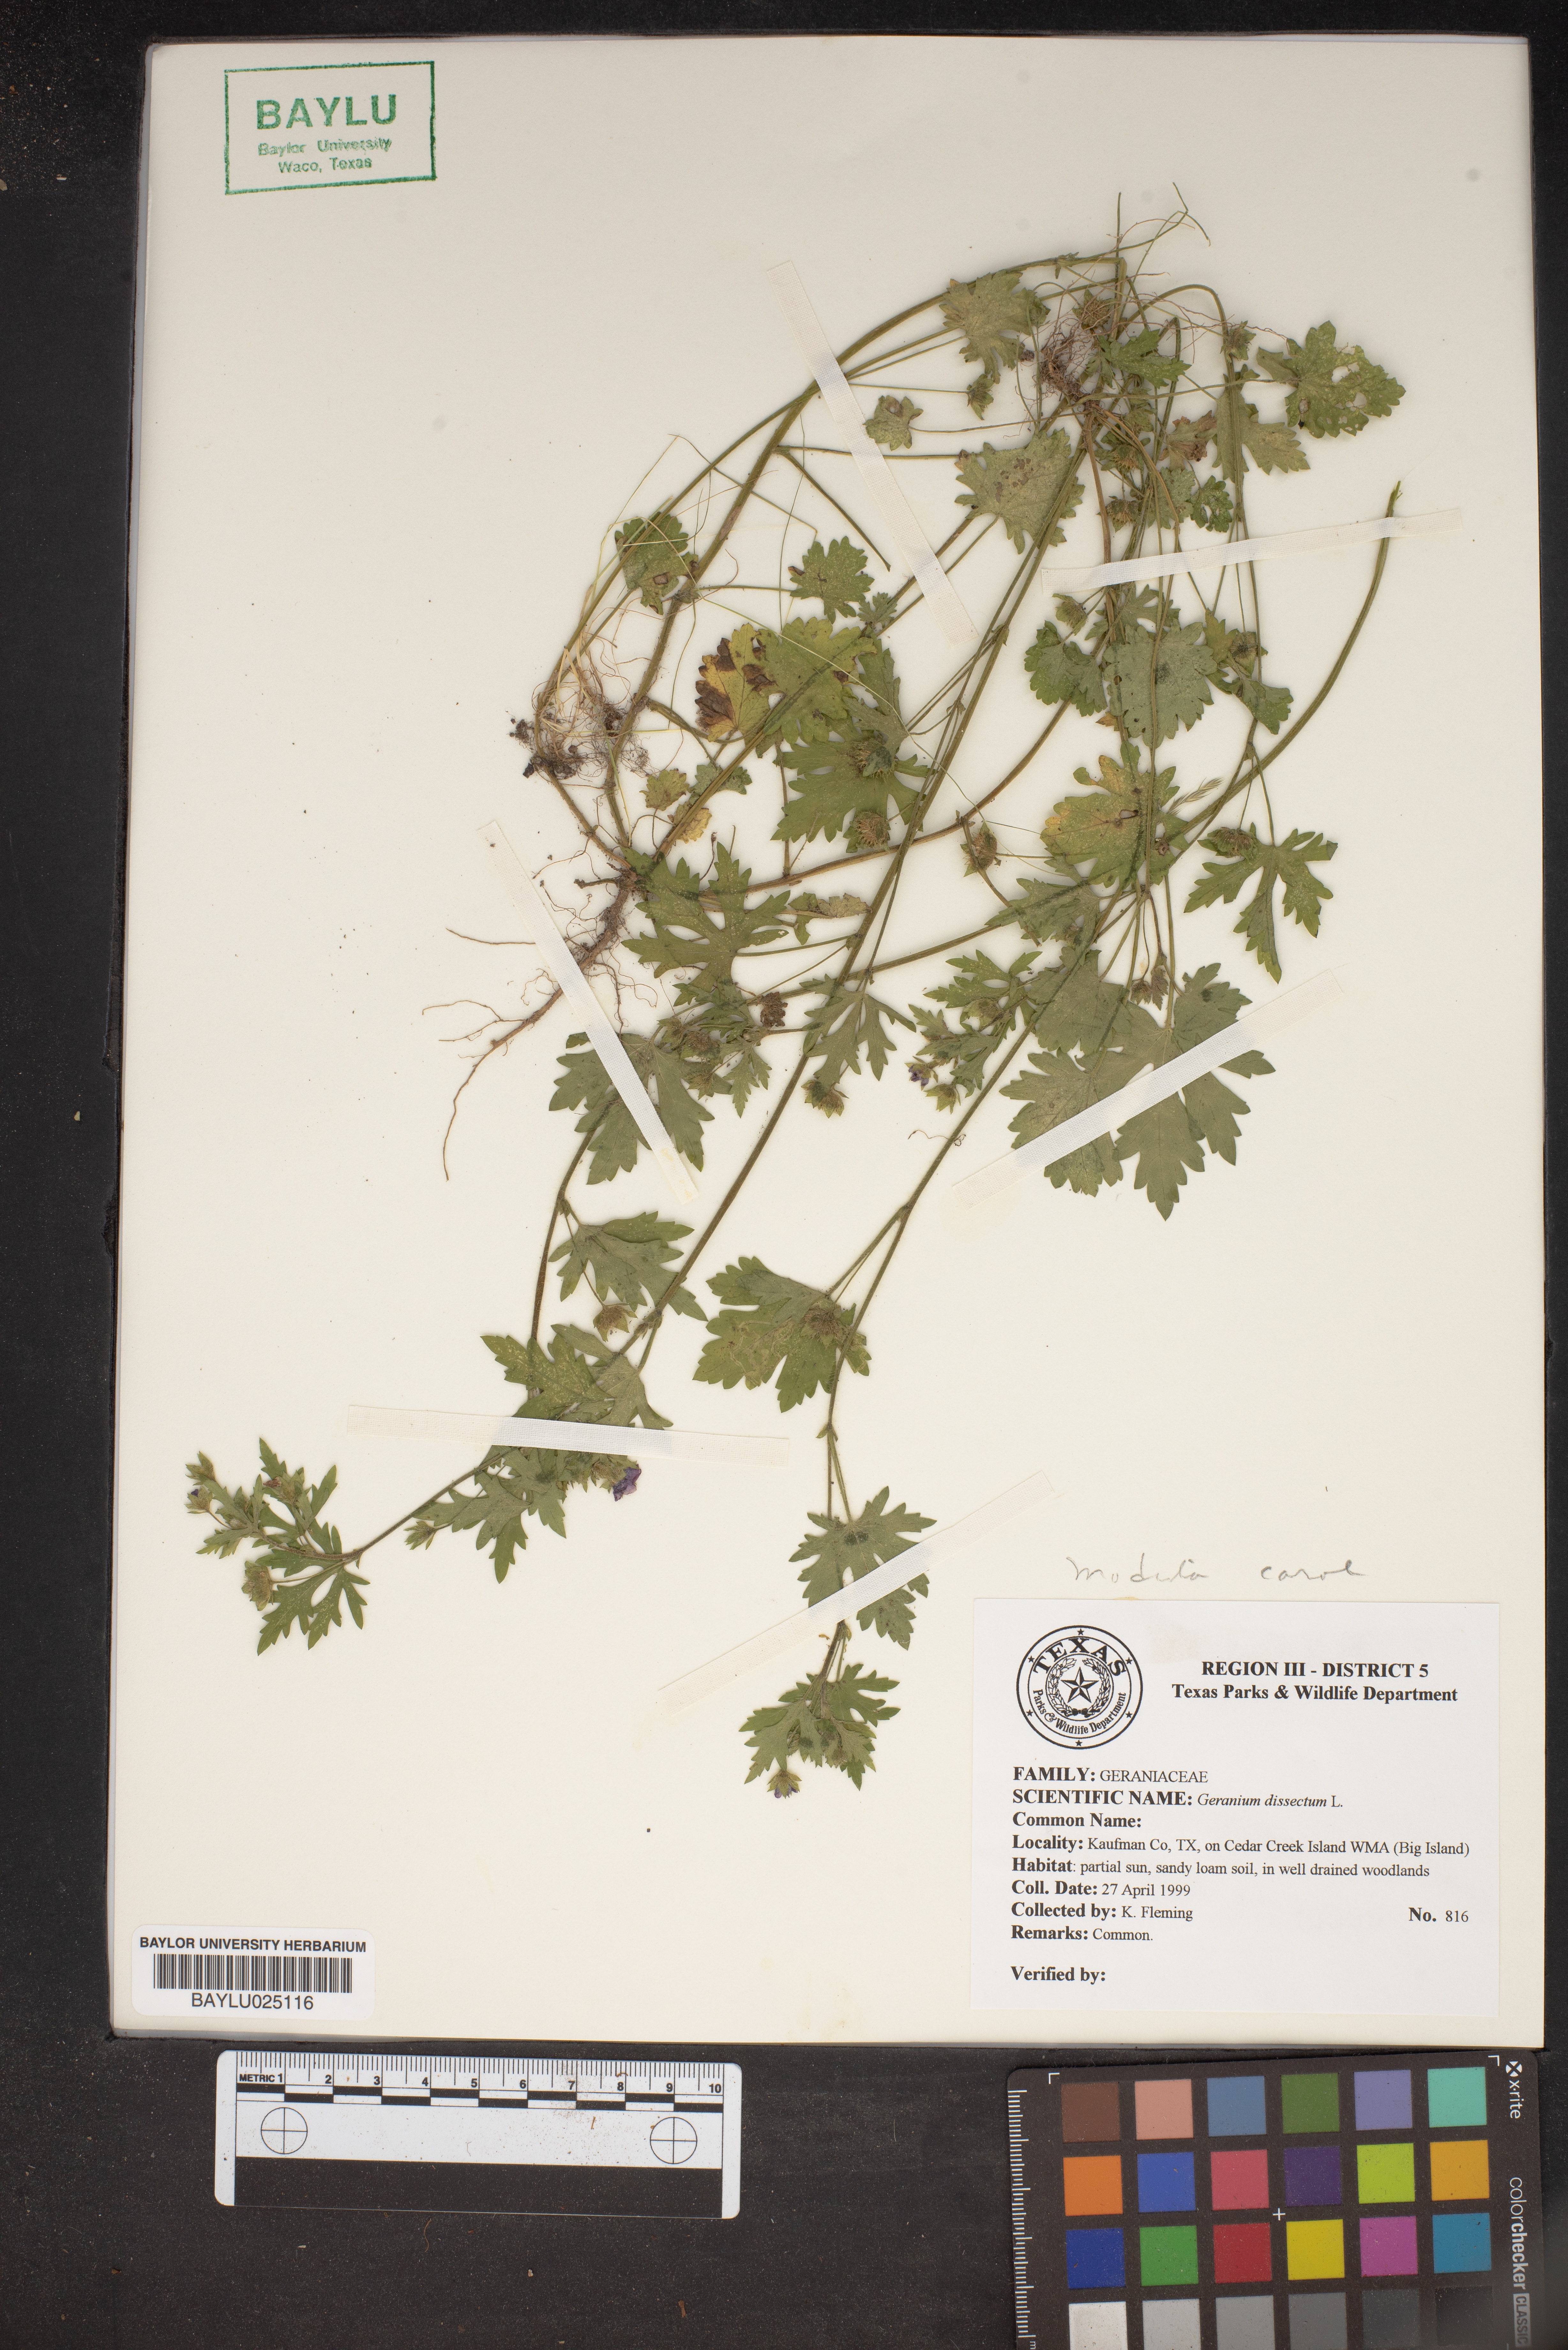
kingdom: Plantae
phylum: Tracheophyta
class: Magnoliopsida
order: Geraniales
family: Geraniaceae
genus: Geranium
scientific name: Geranium dissectum
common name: Cut-leaved crane's-bill
